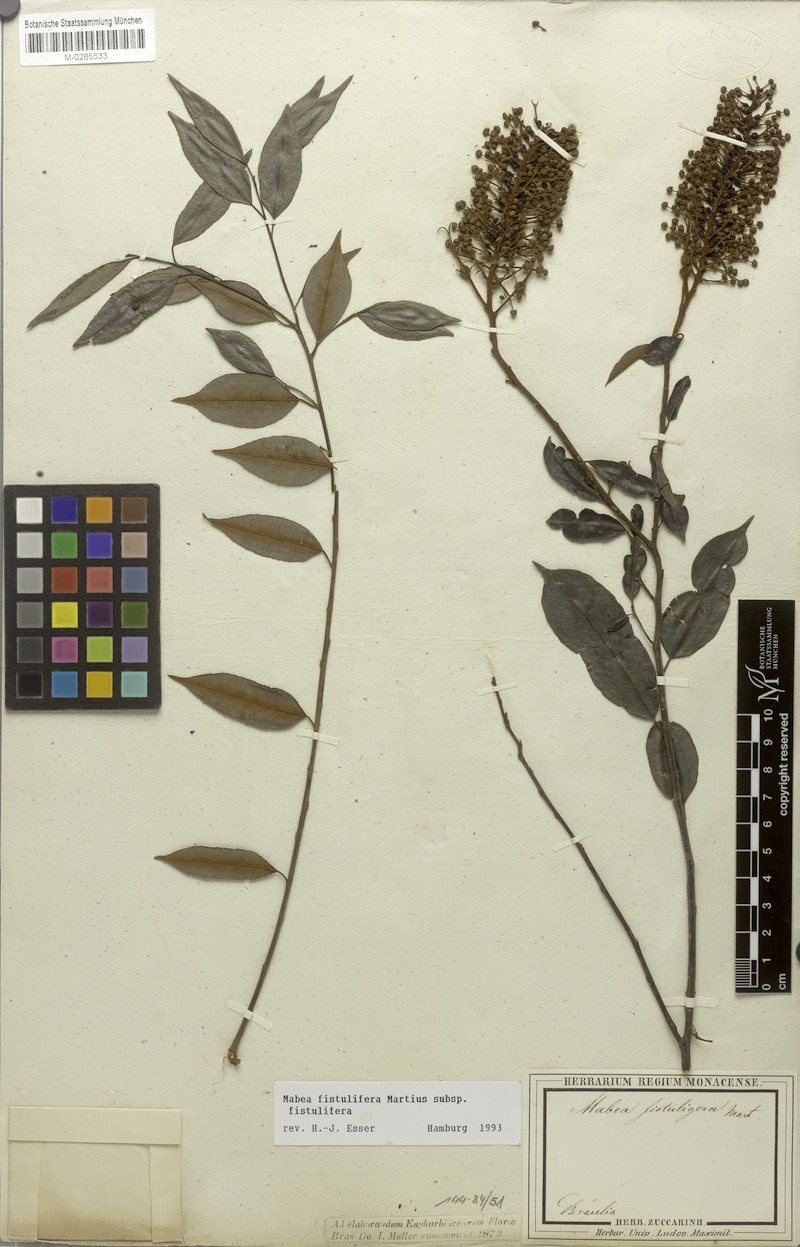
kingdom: Plantae
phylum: Tracheophyta
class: Magnoliopsida
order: Malpighiales
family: Euphorbiaceae
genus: Mabea
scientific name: Mabea fistulifera
